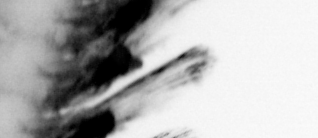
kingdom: Animalia
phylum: Annelida
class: Polychaeta
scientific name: Polychaeta
